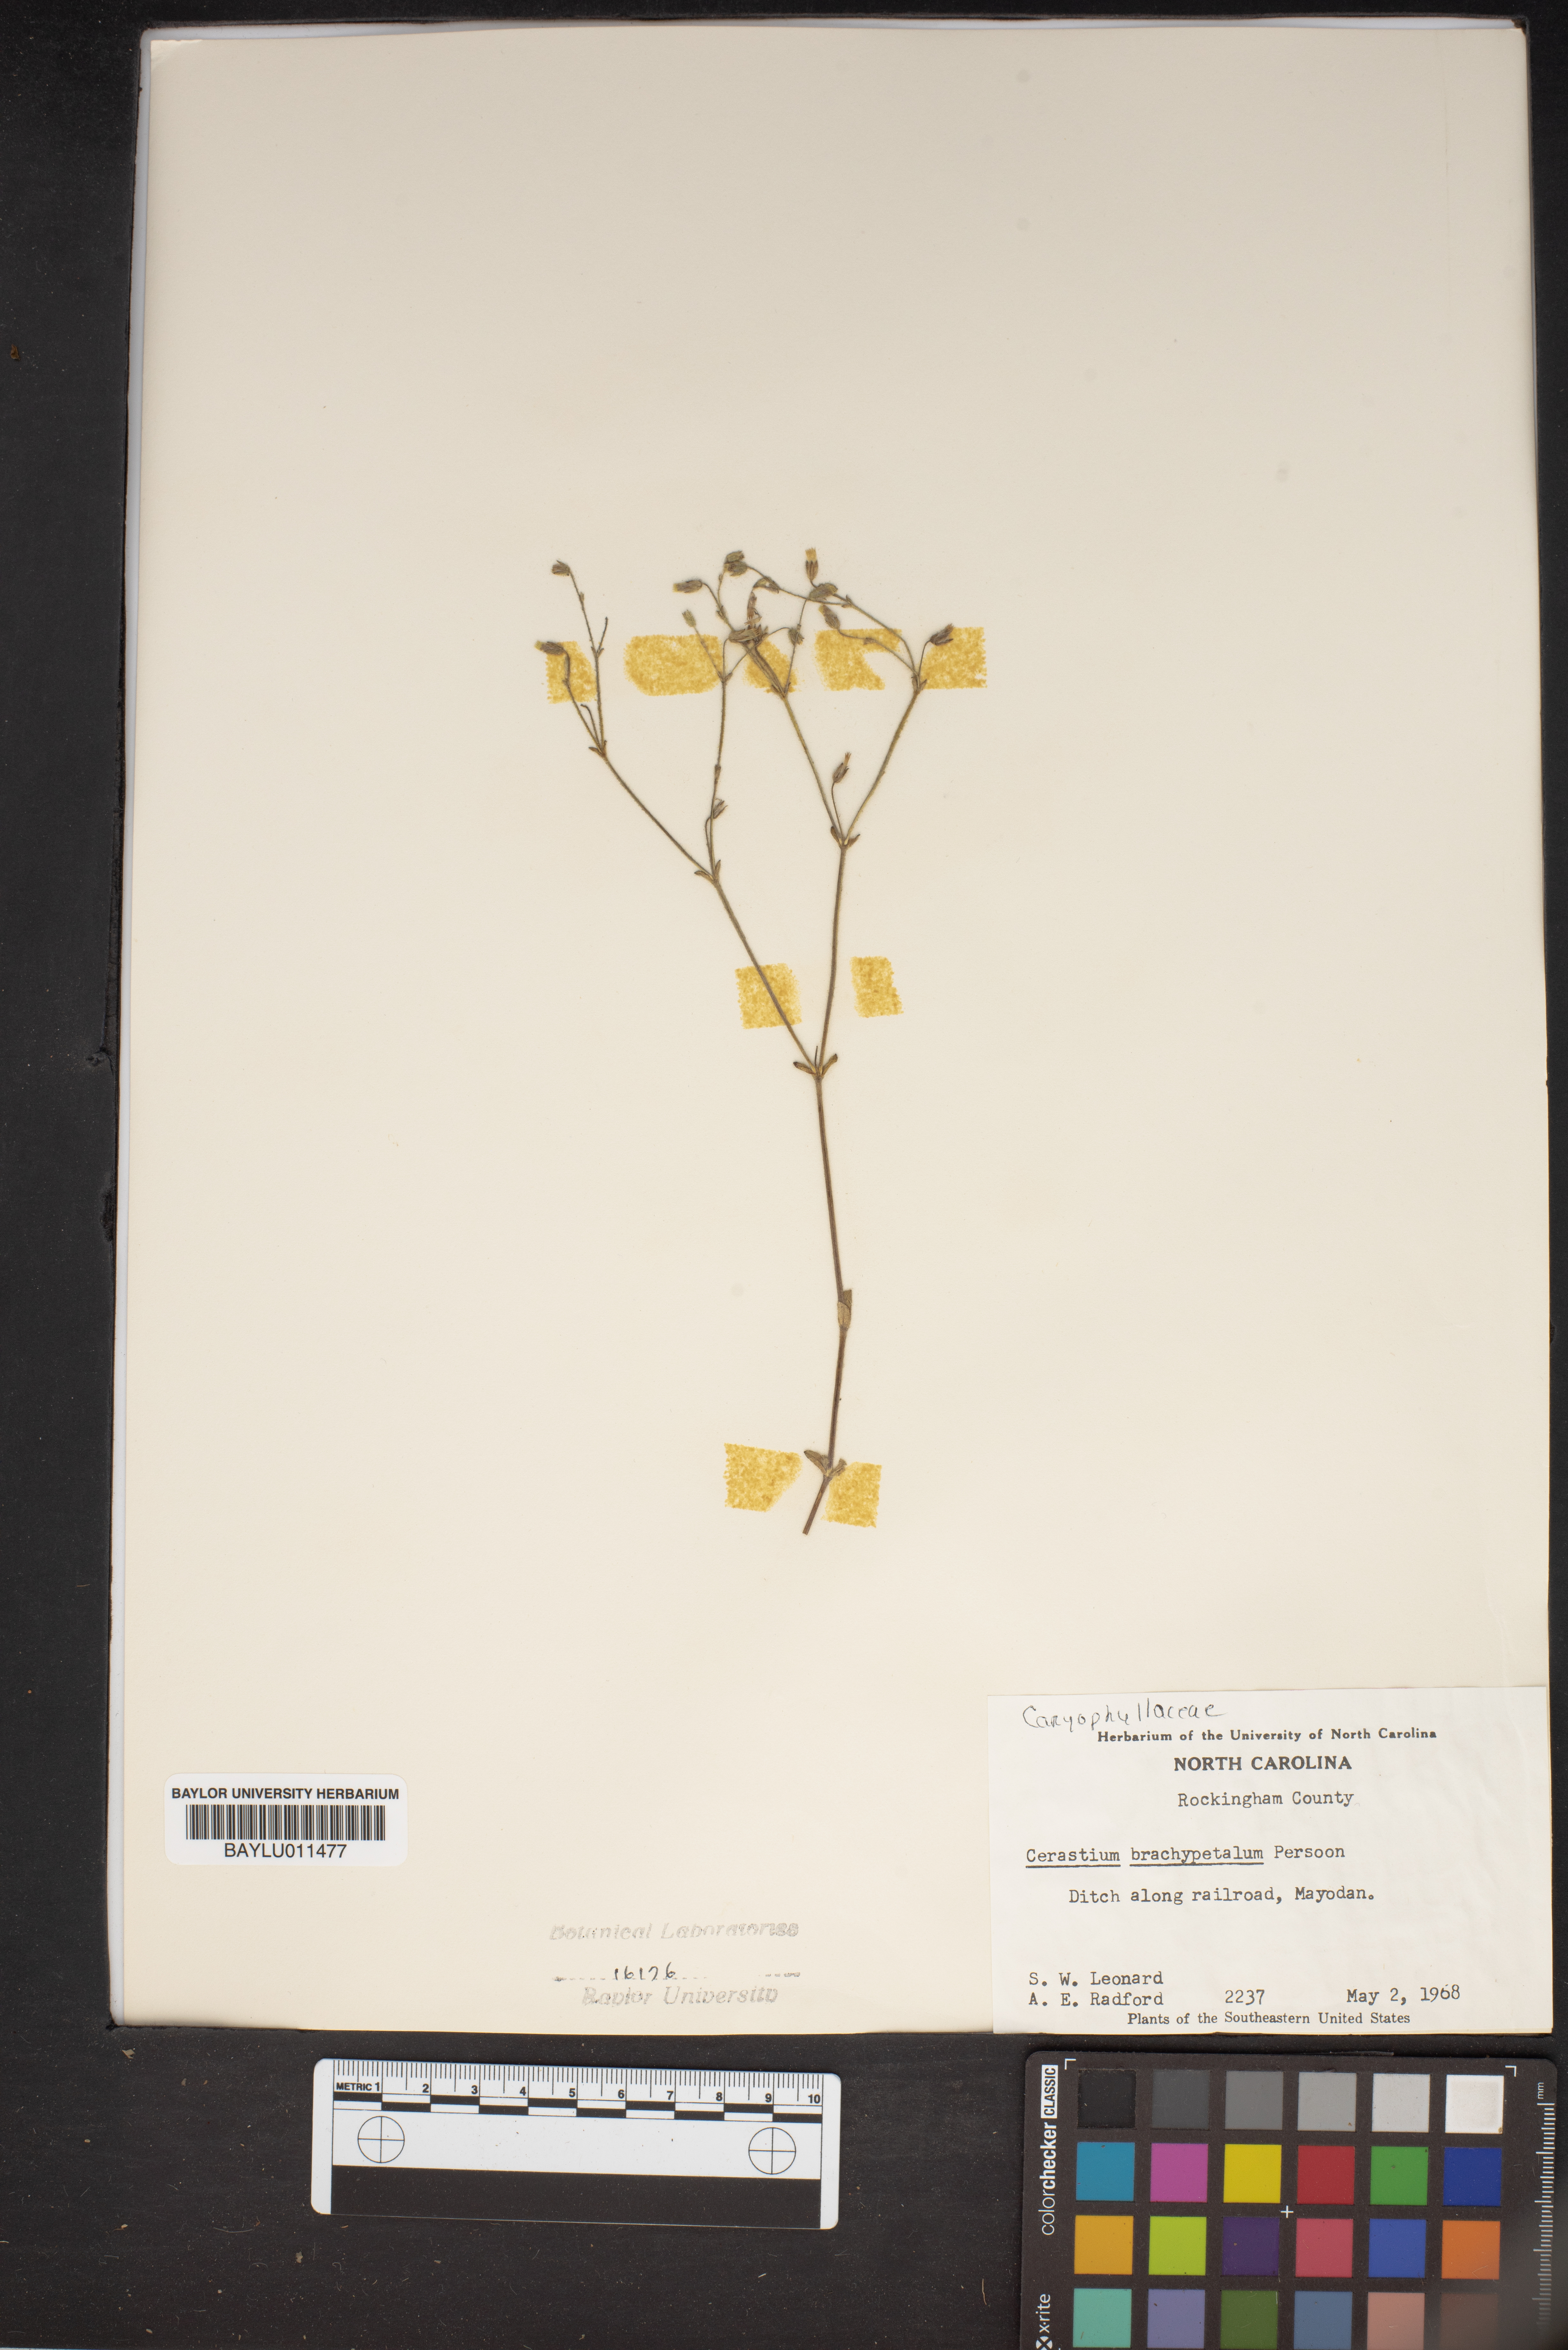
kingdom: Plantae
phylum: Tracheophyta
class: Magnoliopsida
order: Caryophyllales
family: Caryophyllaceae
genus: Cerastium
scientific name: Cerastium brachypetalum
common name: Grey mouse-ear
